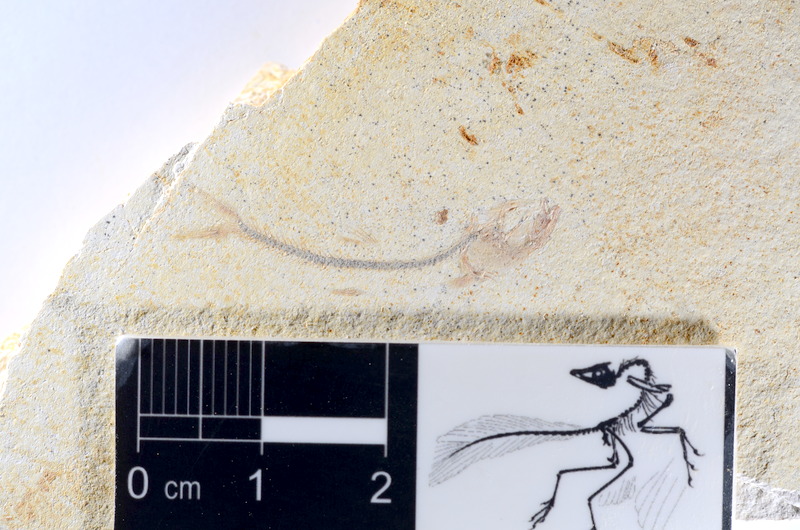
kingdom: Animalia
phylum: Chordata
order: Salmoniformes
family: Orthogonikleithridae
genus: Orthogonikleithrus
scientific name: Orthogonikleithrus hoelli
